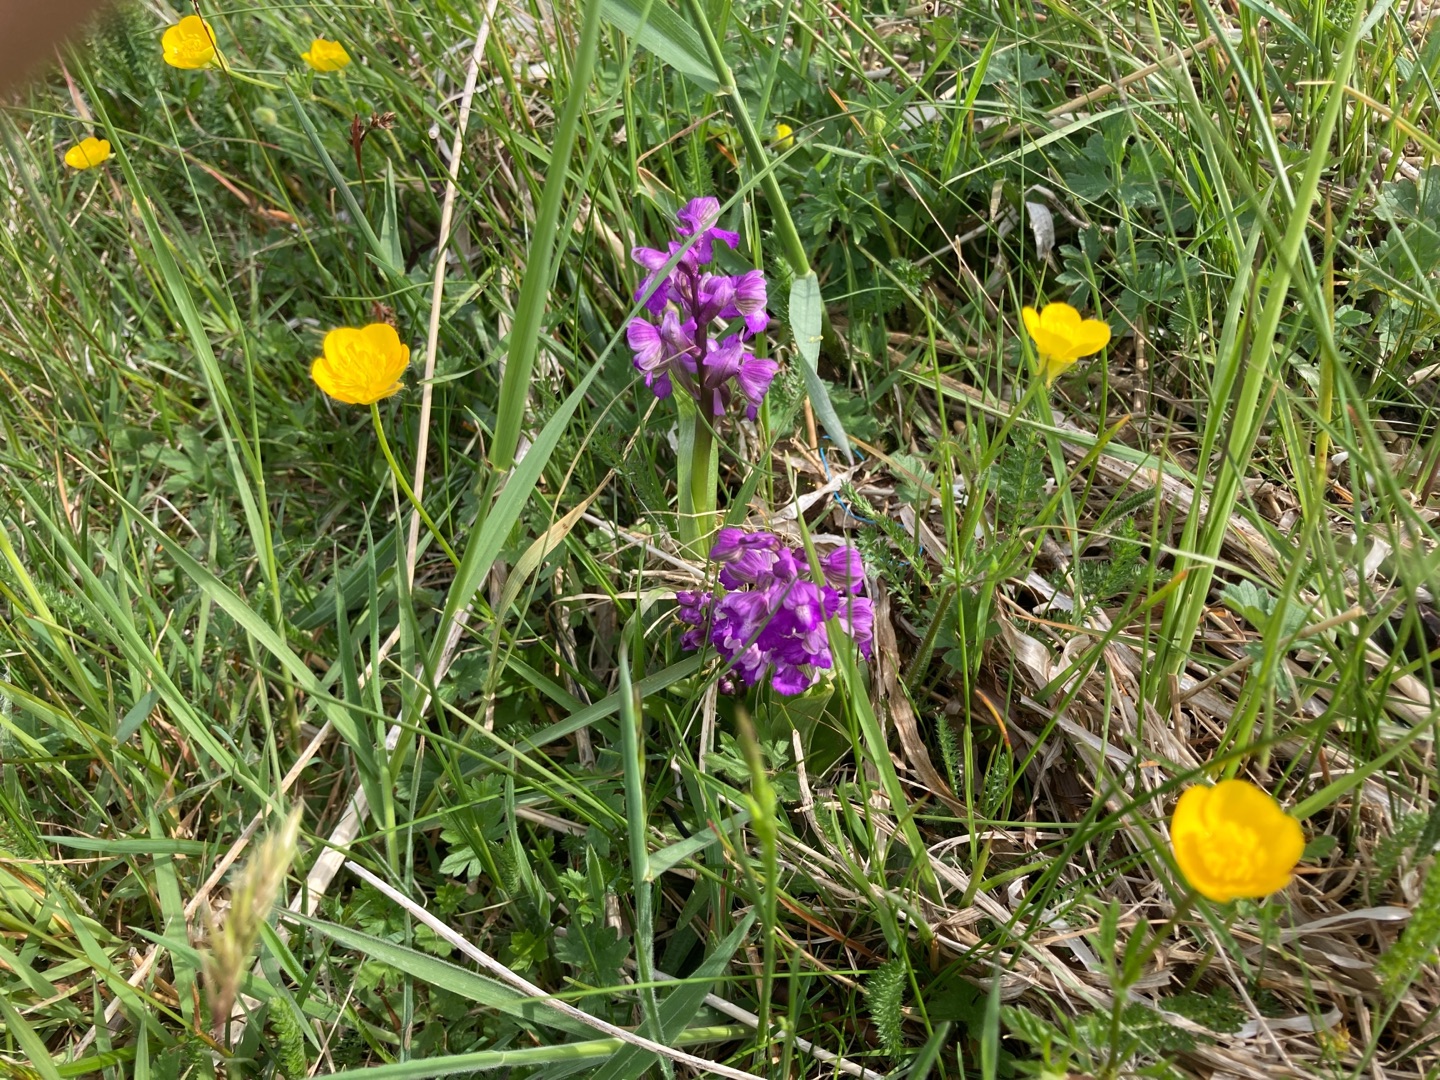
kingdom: Plantae
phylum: Tracheophyta
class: Liliopsida
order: Asparagales
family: Orchidaceae
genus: Anacamptis
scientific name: Anacamptis morio
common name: Salepgøgeurt
